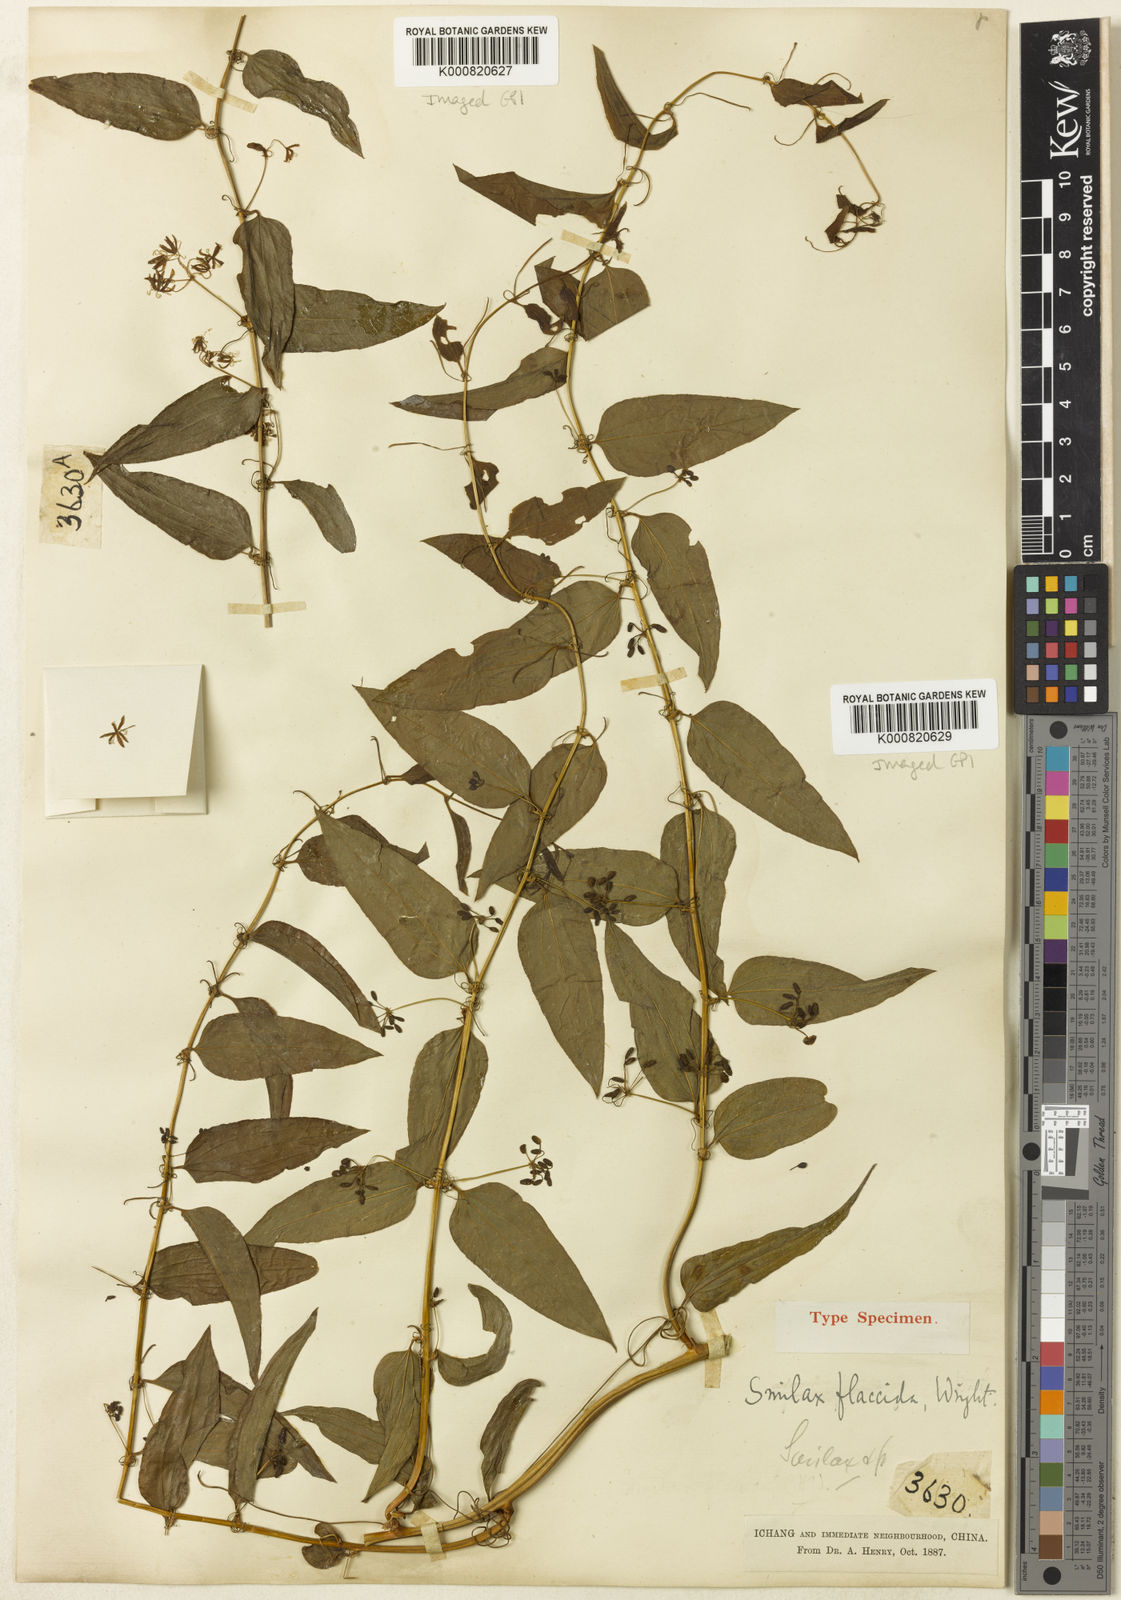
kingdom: Plantae
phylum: Tracheophyta
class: Liliopsida
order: Liliales
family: Smilacaceae
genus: Smilax
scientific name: Smilax riparia
